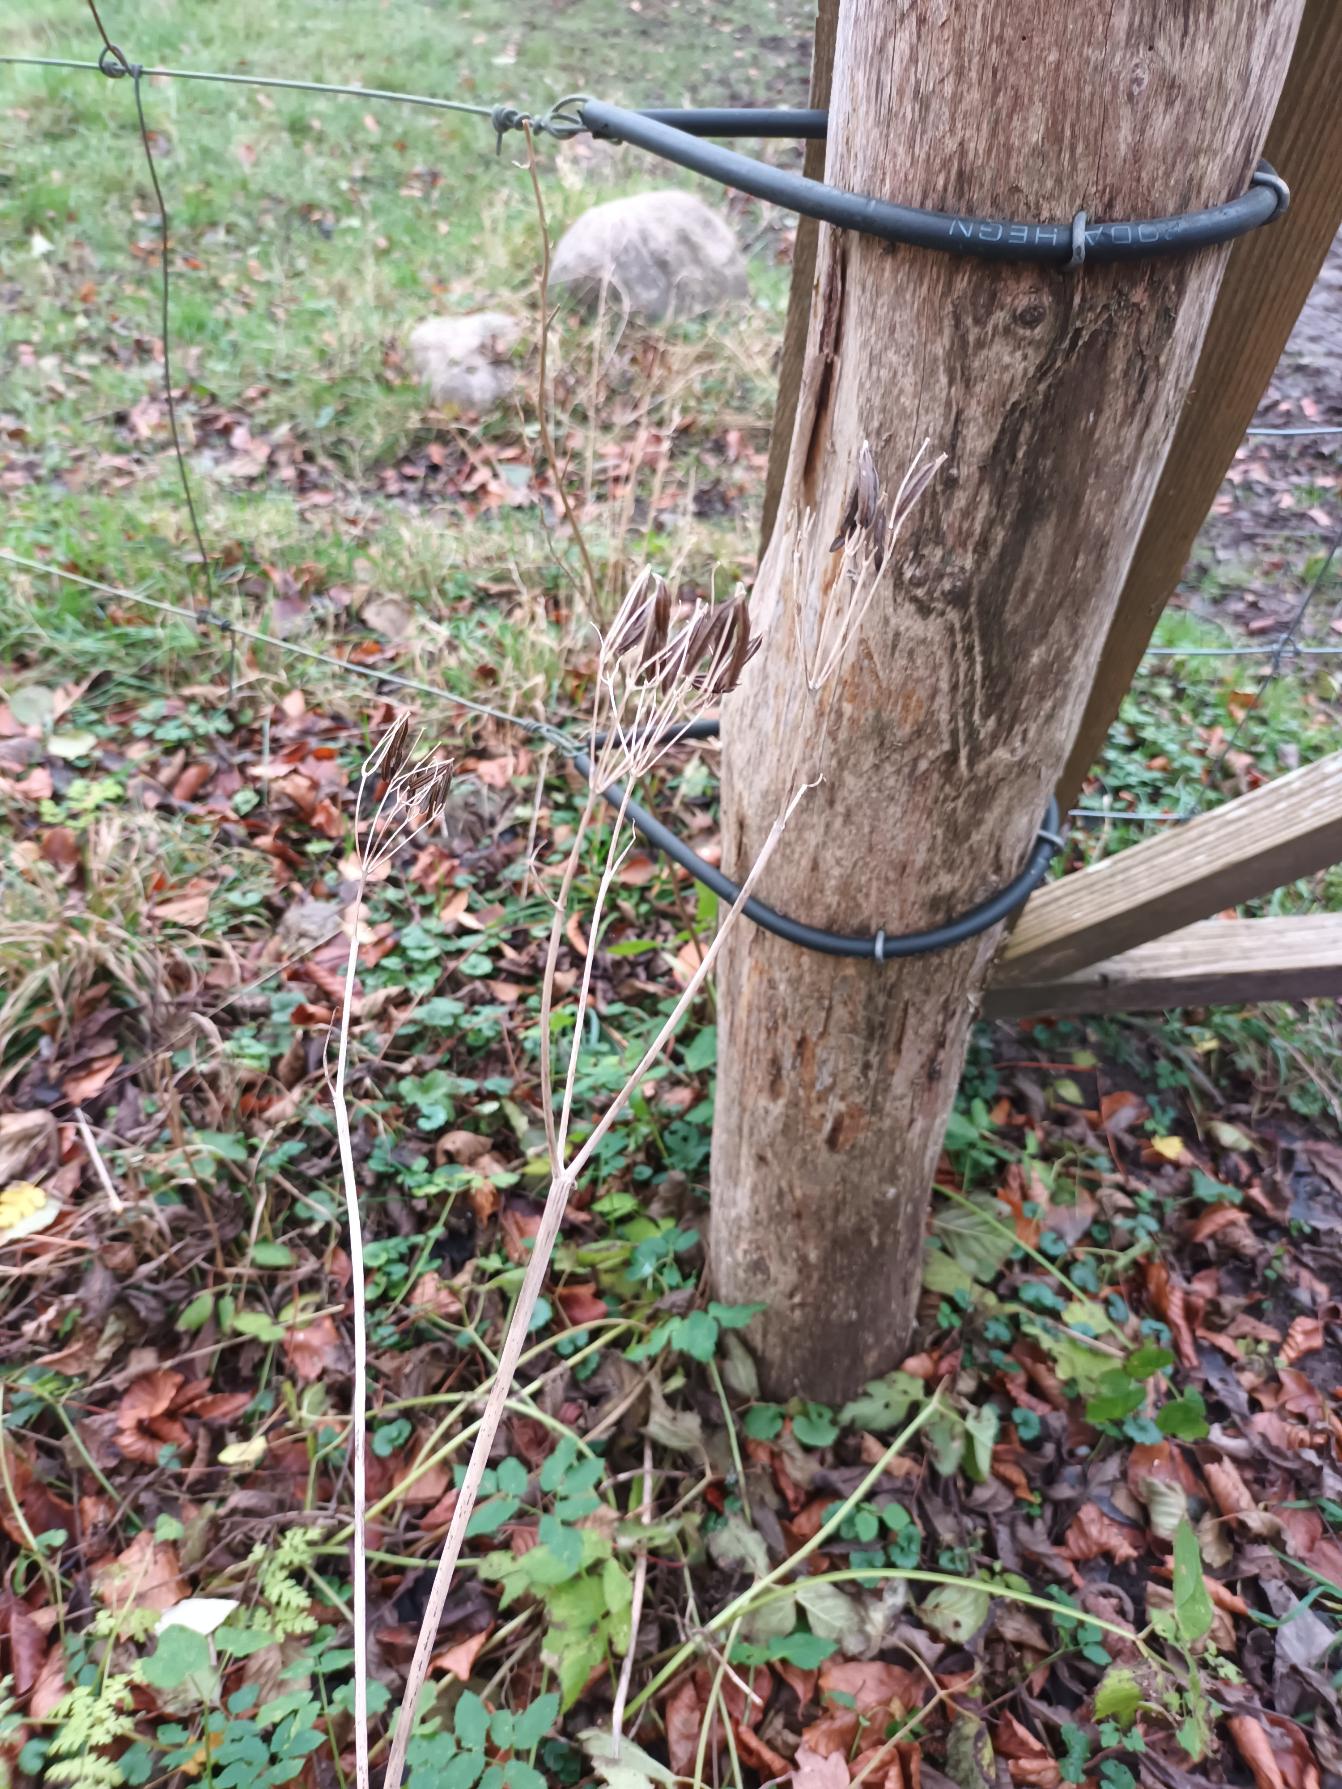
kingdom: Plantae
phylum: Tracheophyta
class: Magnoliopsida
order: Apiales
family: Apiaceae
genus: Myrrhis
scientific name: Myrrhis odorata
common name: Sødskærm
